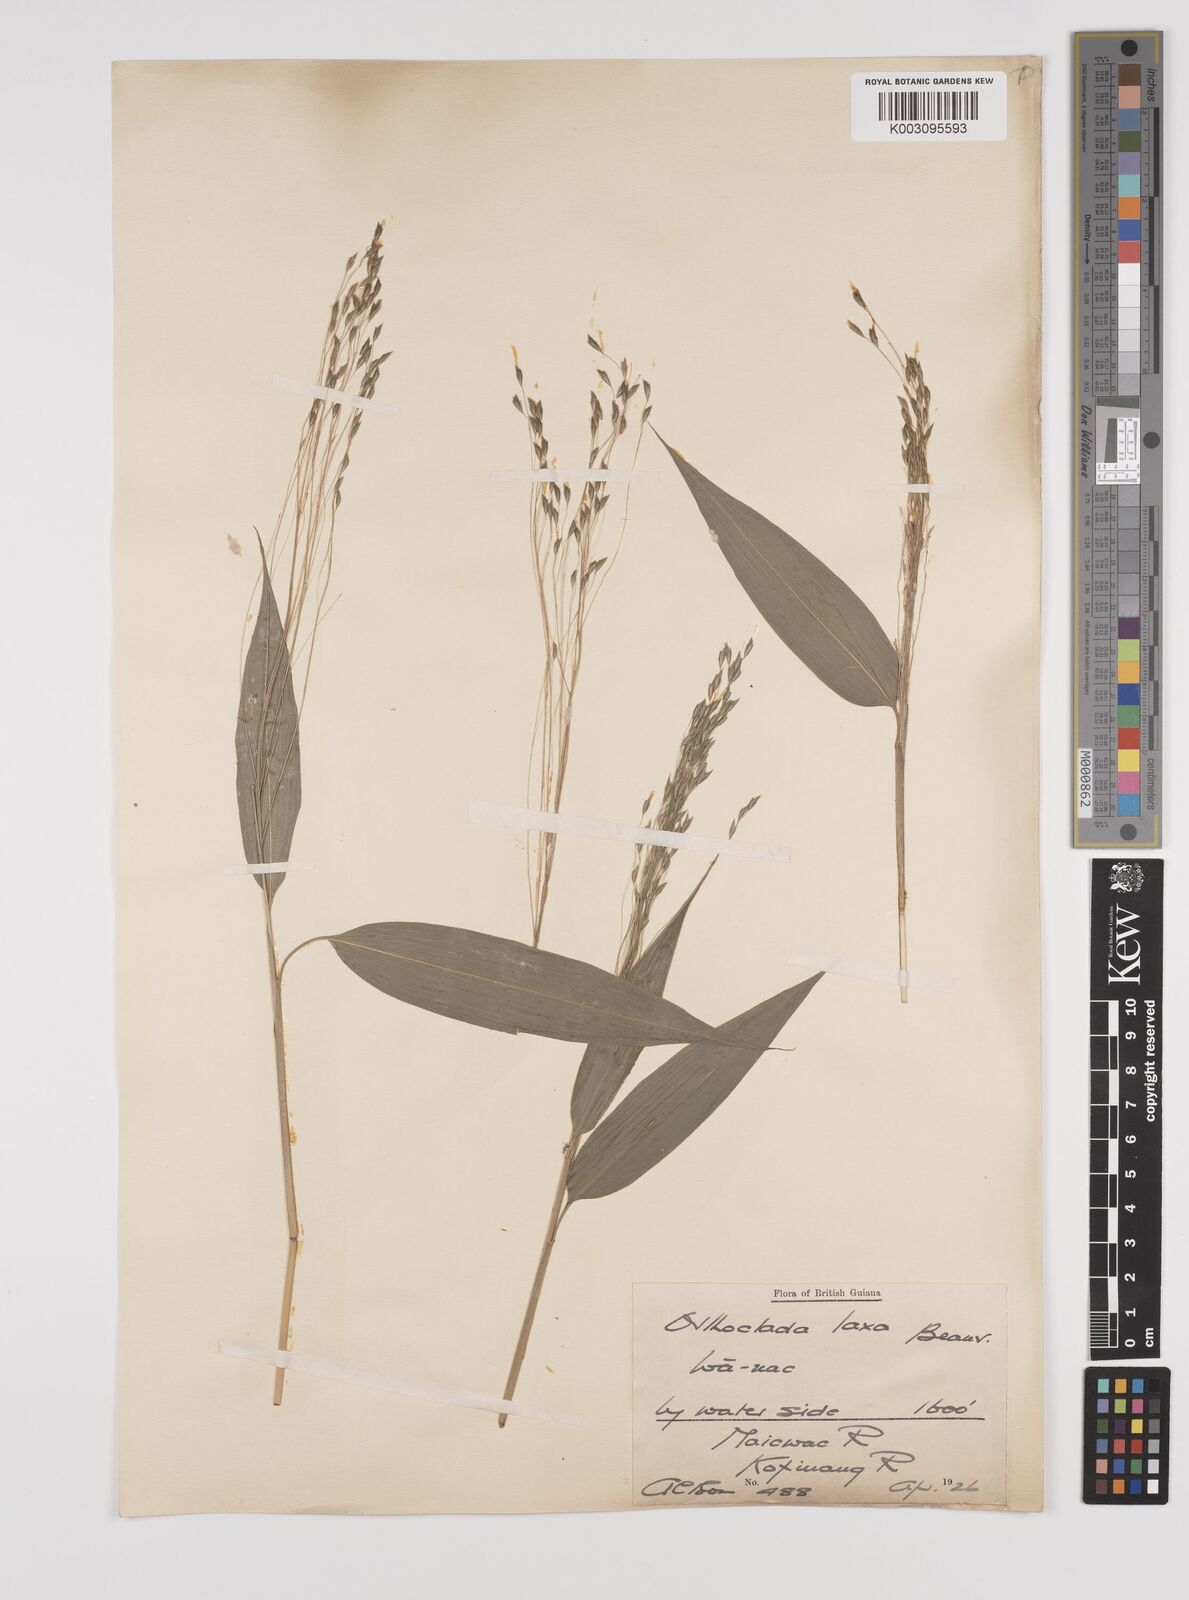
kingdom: Plantae
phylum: Tracheophyta
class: Liliopsida
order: Poales
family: Poaceae
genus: Orthoclada
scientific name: Orthoclada laxa
